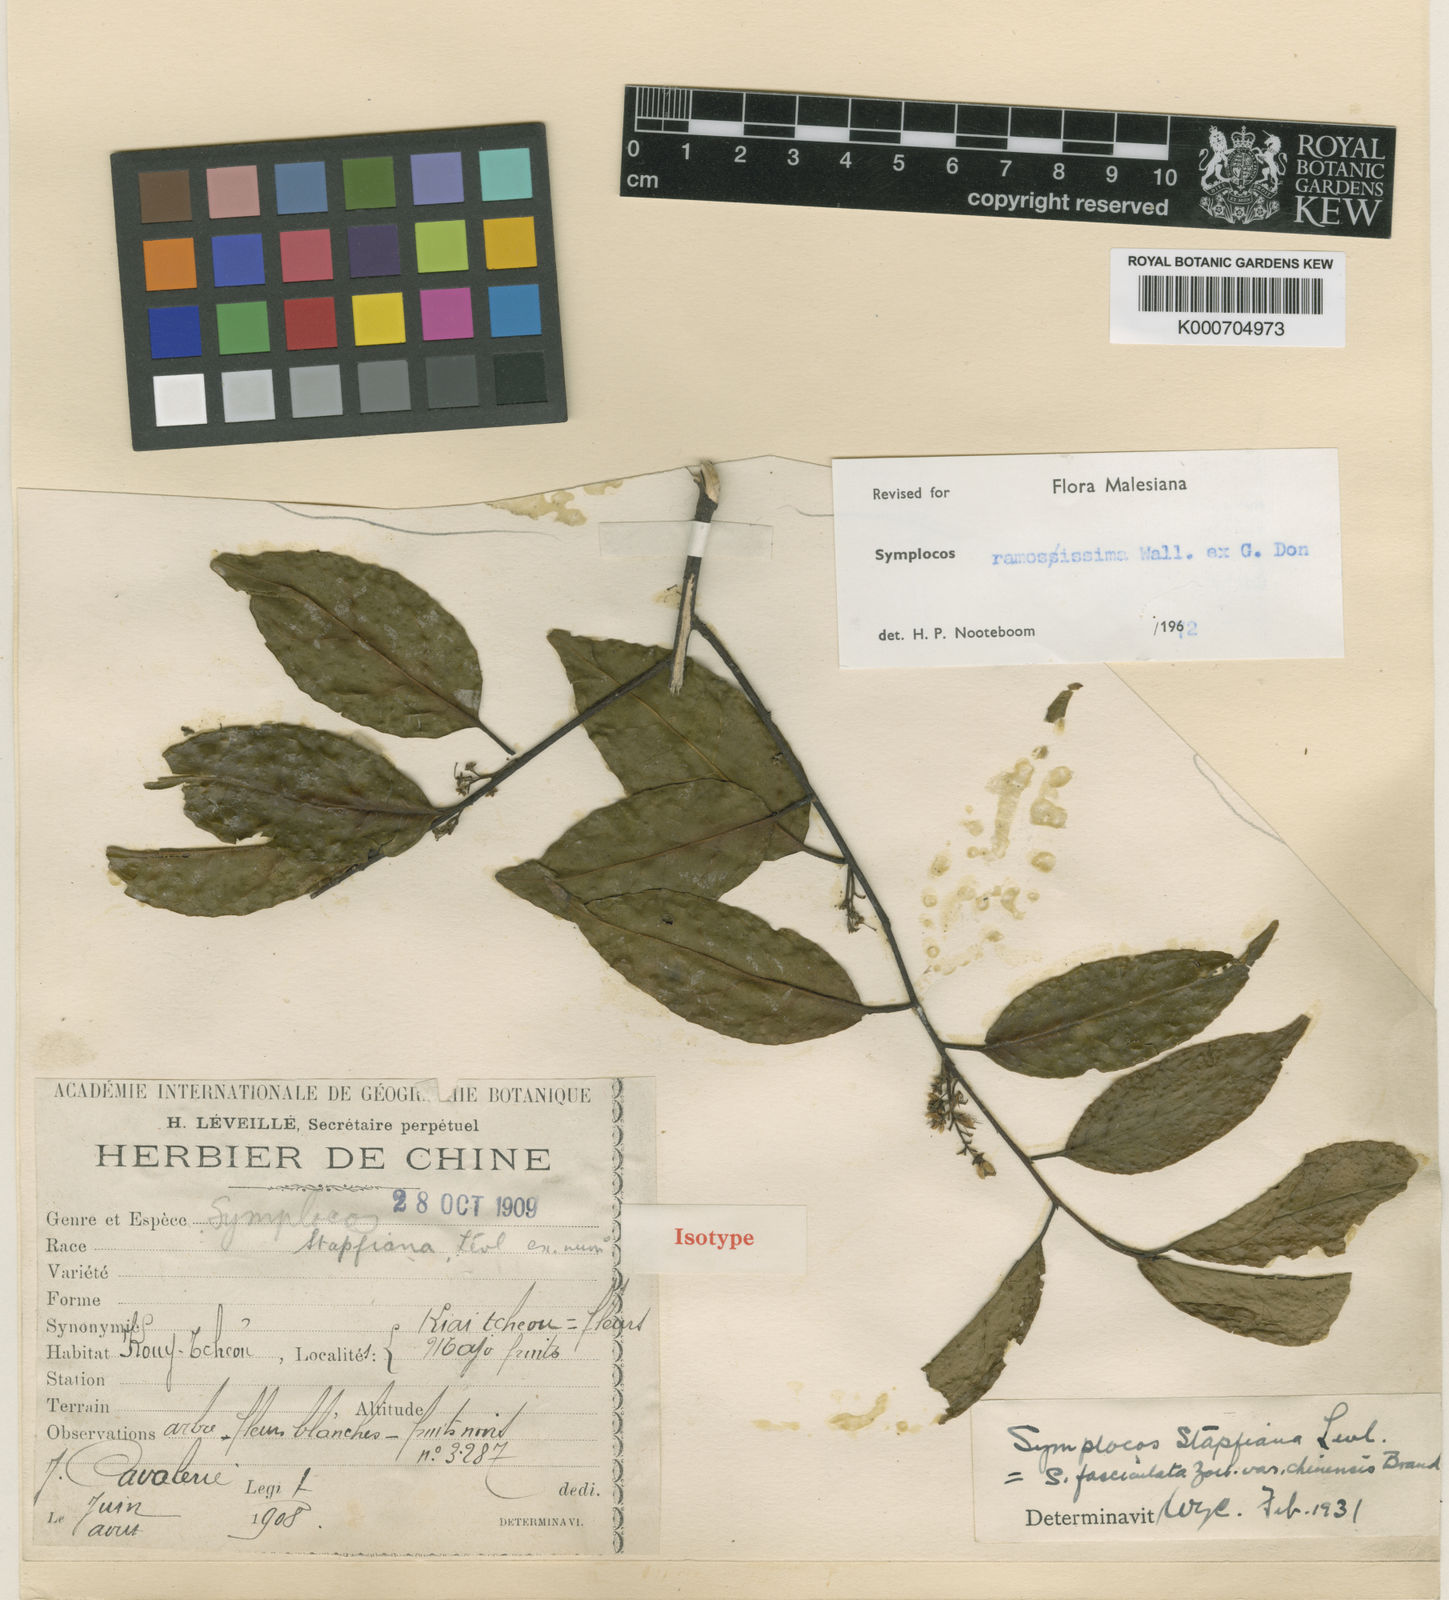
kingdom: Plantae
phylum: Tracheophyta
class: Magnoliopsida
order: Ericales
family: Symplocaceae
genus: Symplocos
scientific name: Symplocos
